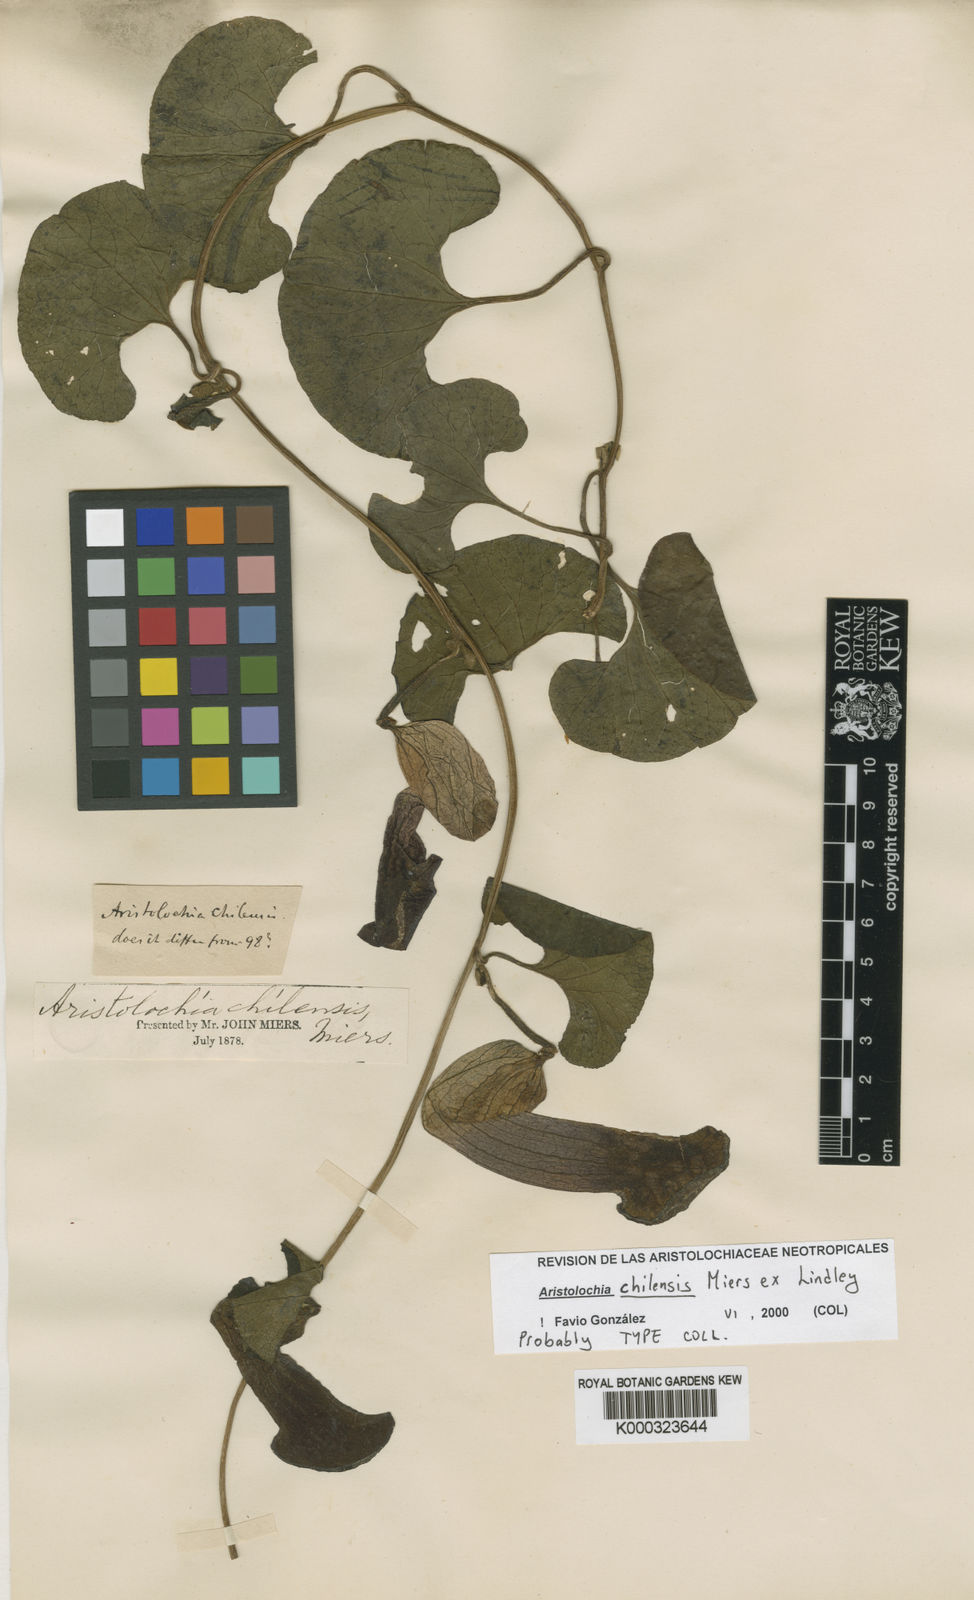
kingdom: Plantae
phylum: Tracheophyta
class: Magnoliopsida
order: Piperales
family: Aristolochiaceae
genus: Aristolochia
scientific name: Aristolochia chilensis
